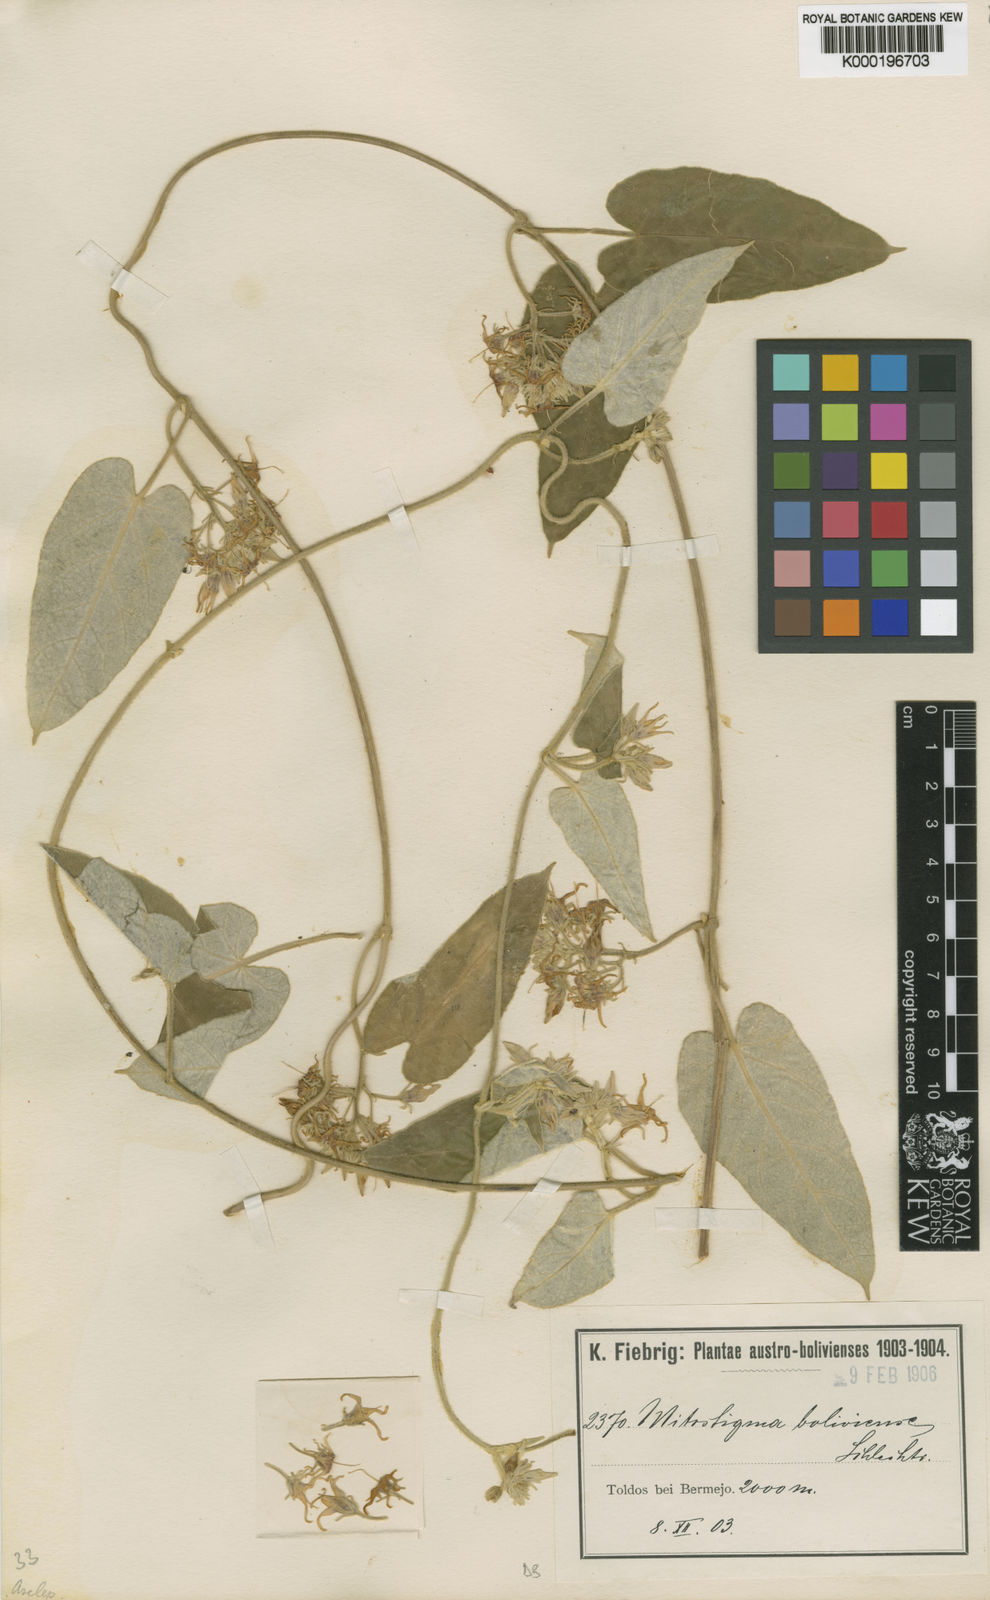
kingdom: Plantae
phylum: Tracheophyta
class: Magnoliopsida
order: Gentianales
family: Apocynaceae
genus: Philibertia
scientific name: Philibertia boliviensis
